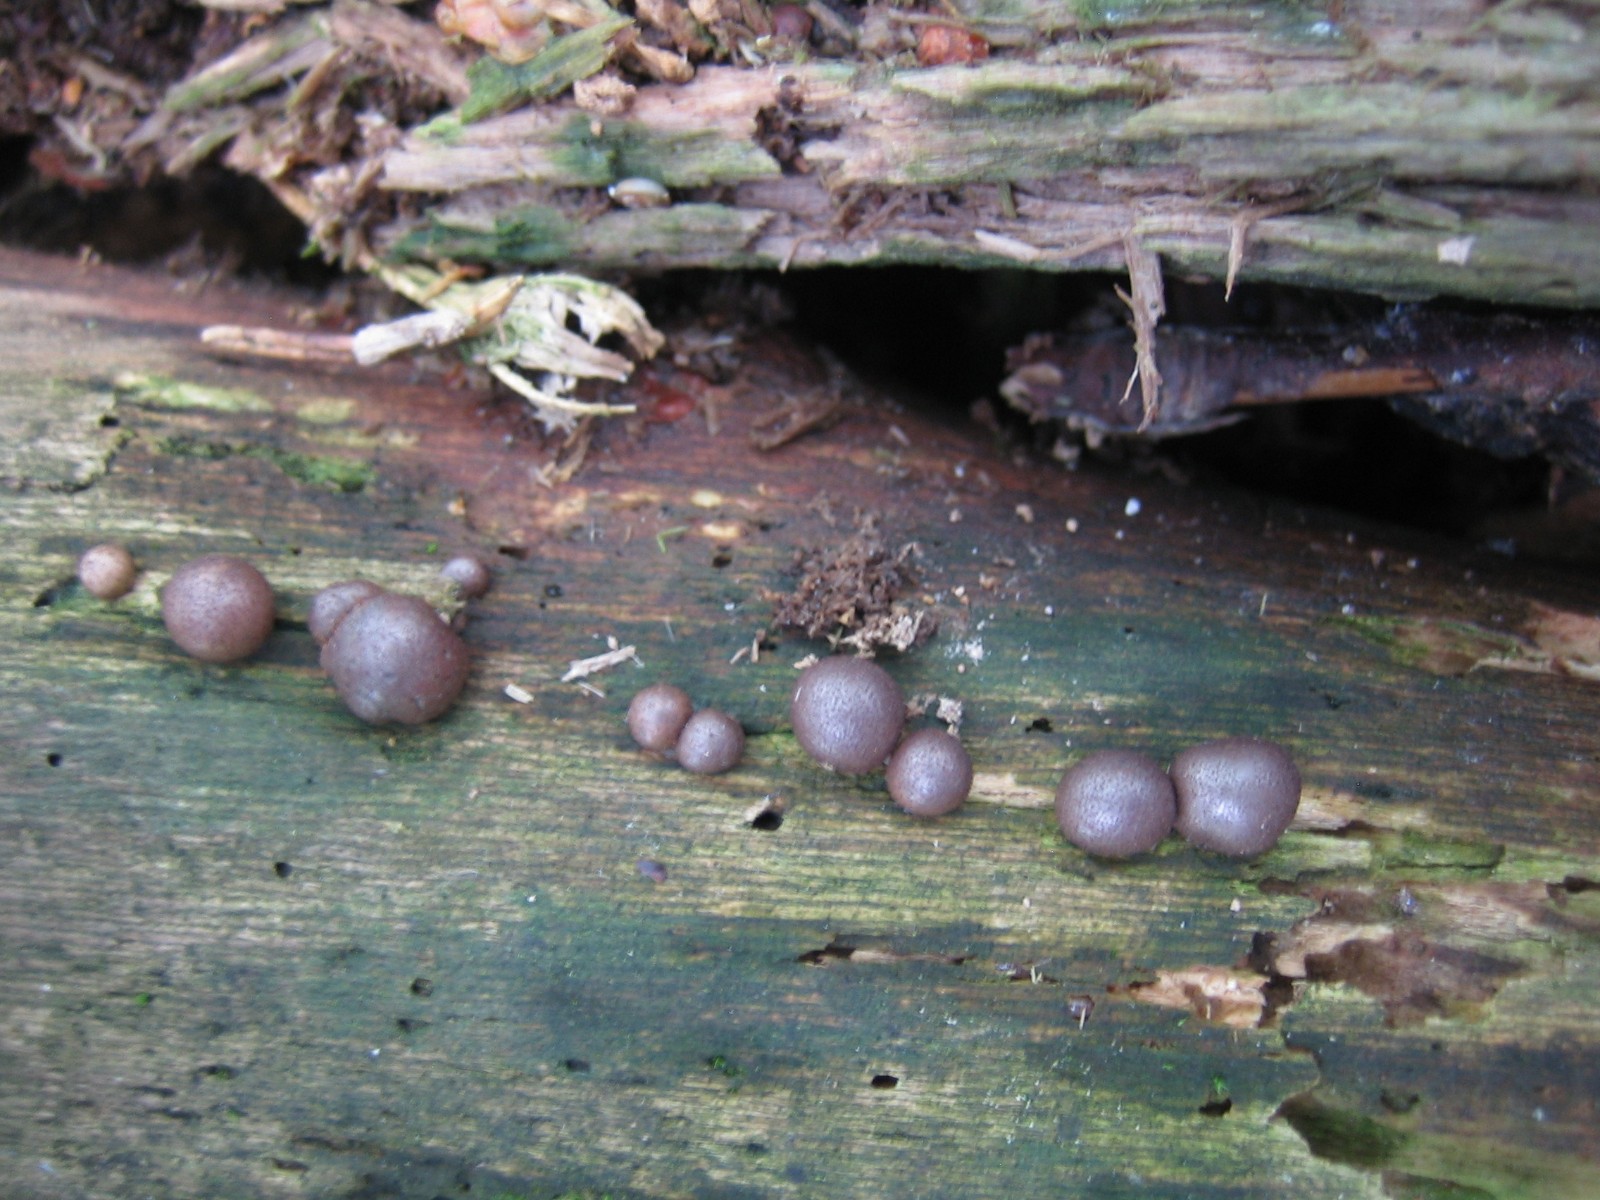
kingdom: Protozoa
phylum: Mycetozoa
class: Myxomycetes
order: Cribrariales
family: Tubiferaceae
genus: Lycogala
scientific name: Lycogala epidendrum
